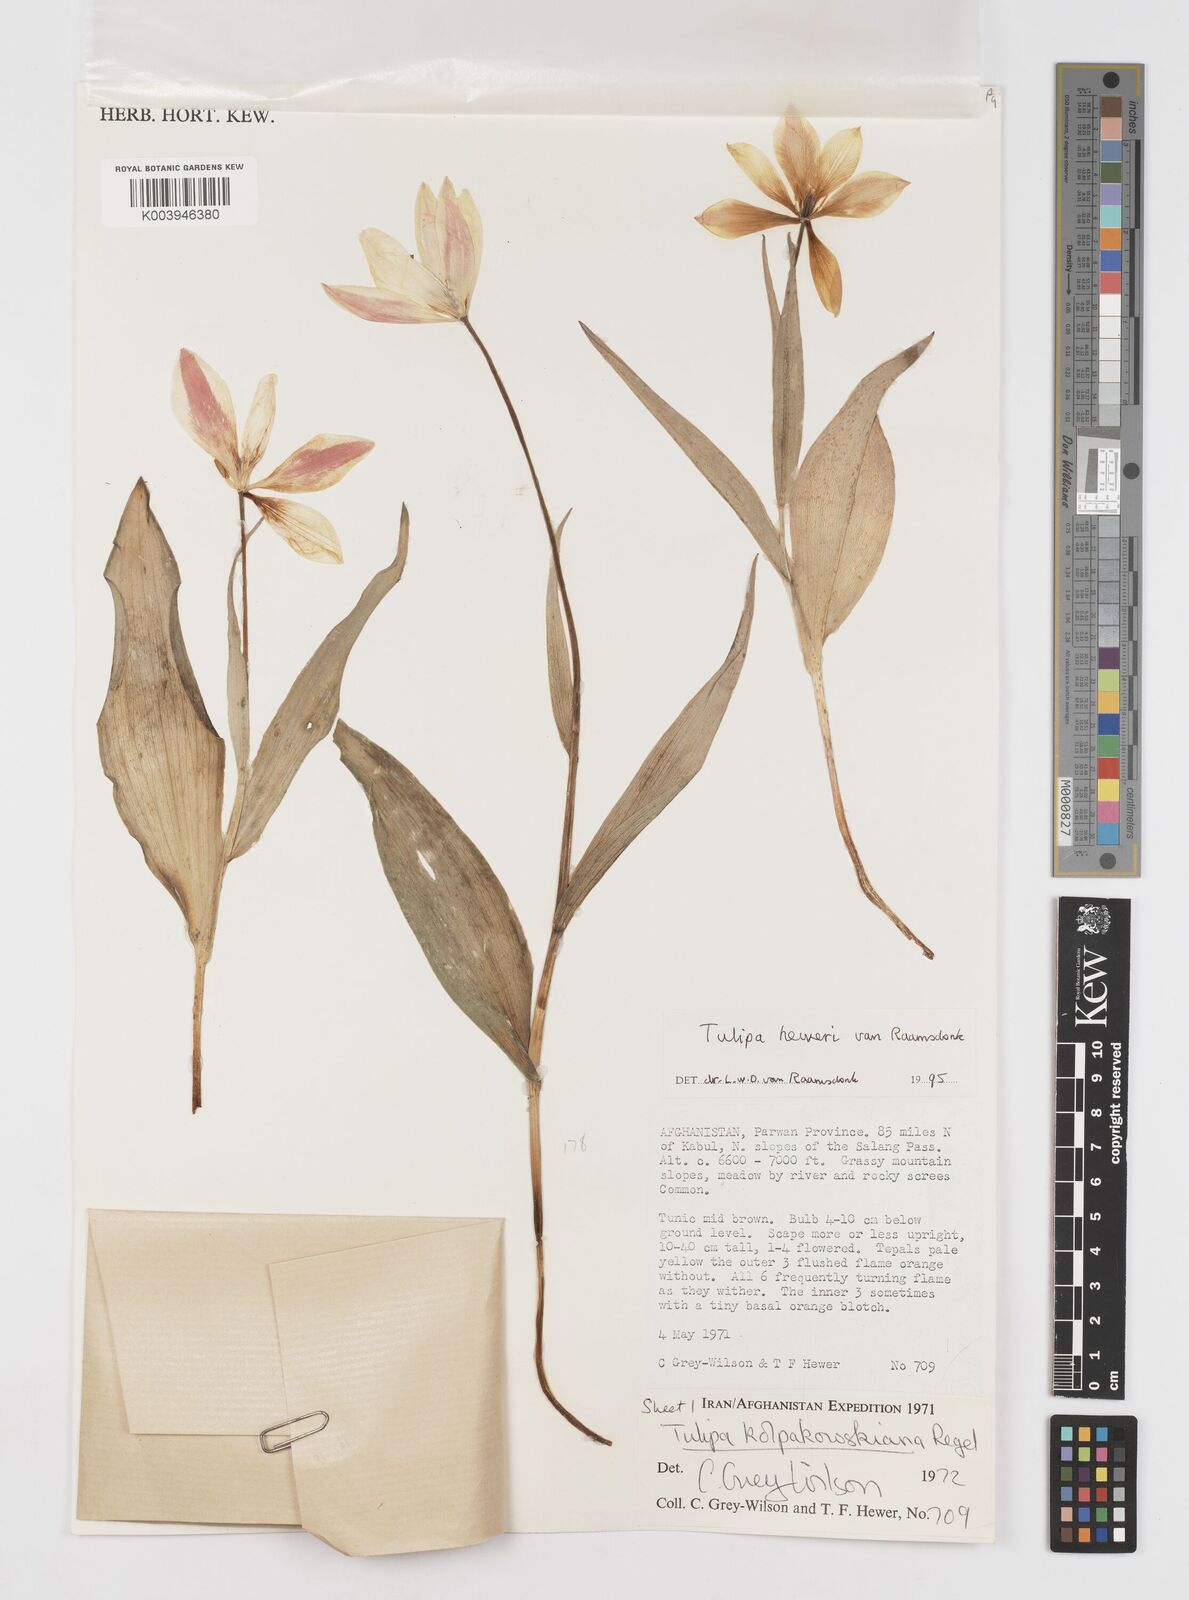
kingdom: Plantae
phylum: Tracheophyta
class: Liliopsida
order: Liliales
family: Liliaceae
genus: Tulipa
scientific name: Tulipa kolpakowskiana
